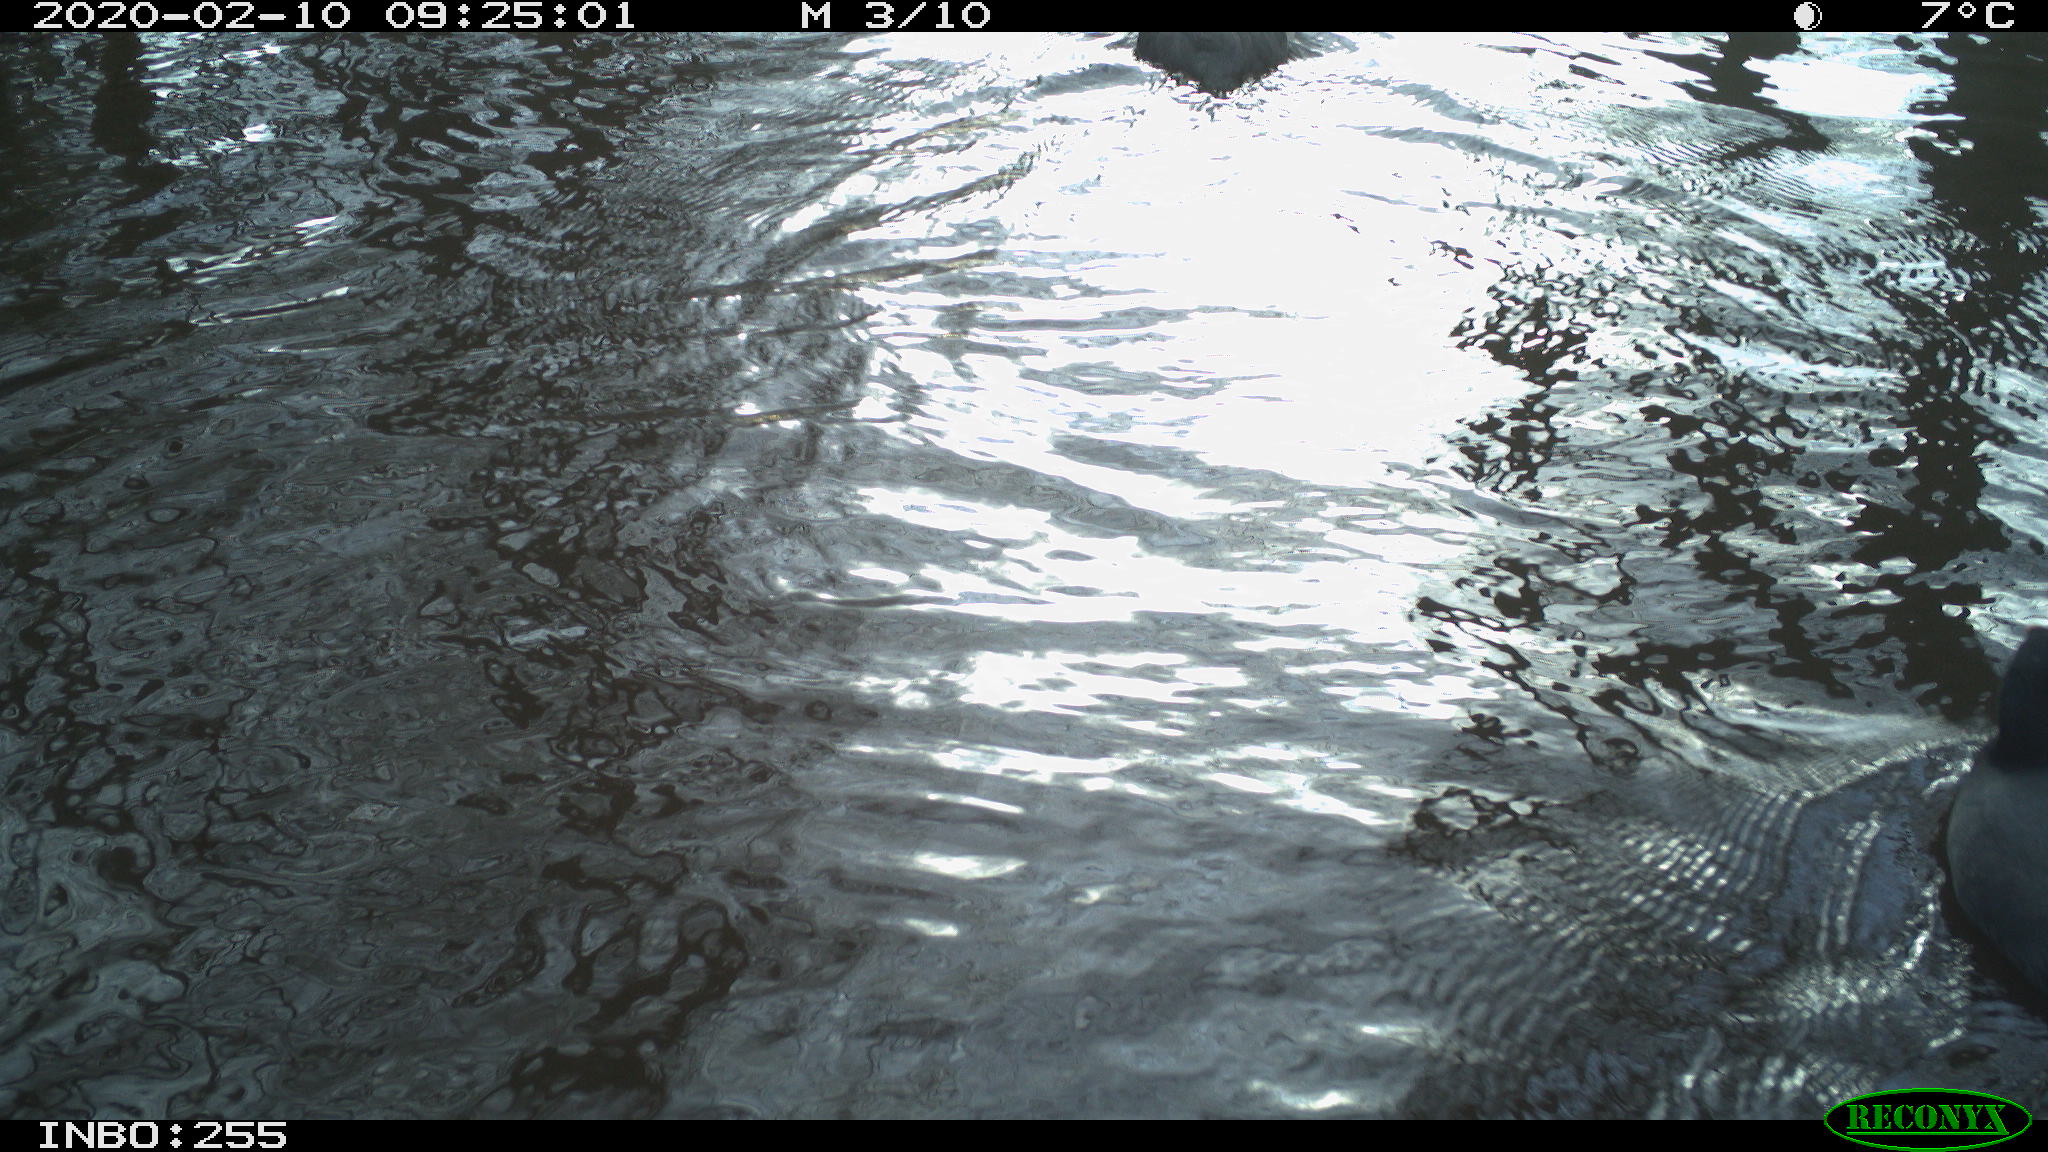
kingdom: Animalia
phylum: Chordata
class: Aves
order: Gruiformes
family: Rallidae
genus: Fulica
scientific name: Fulica atra
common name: Eurasian coot
